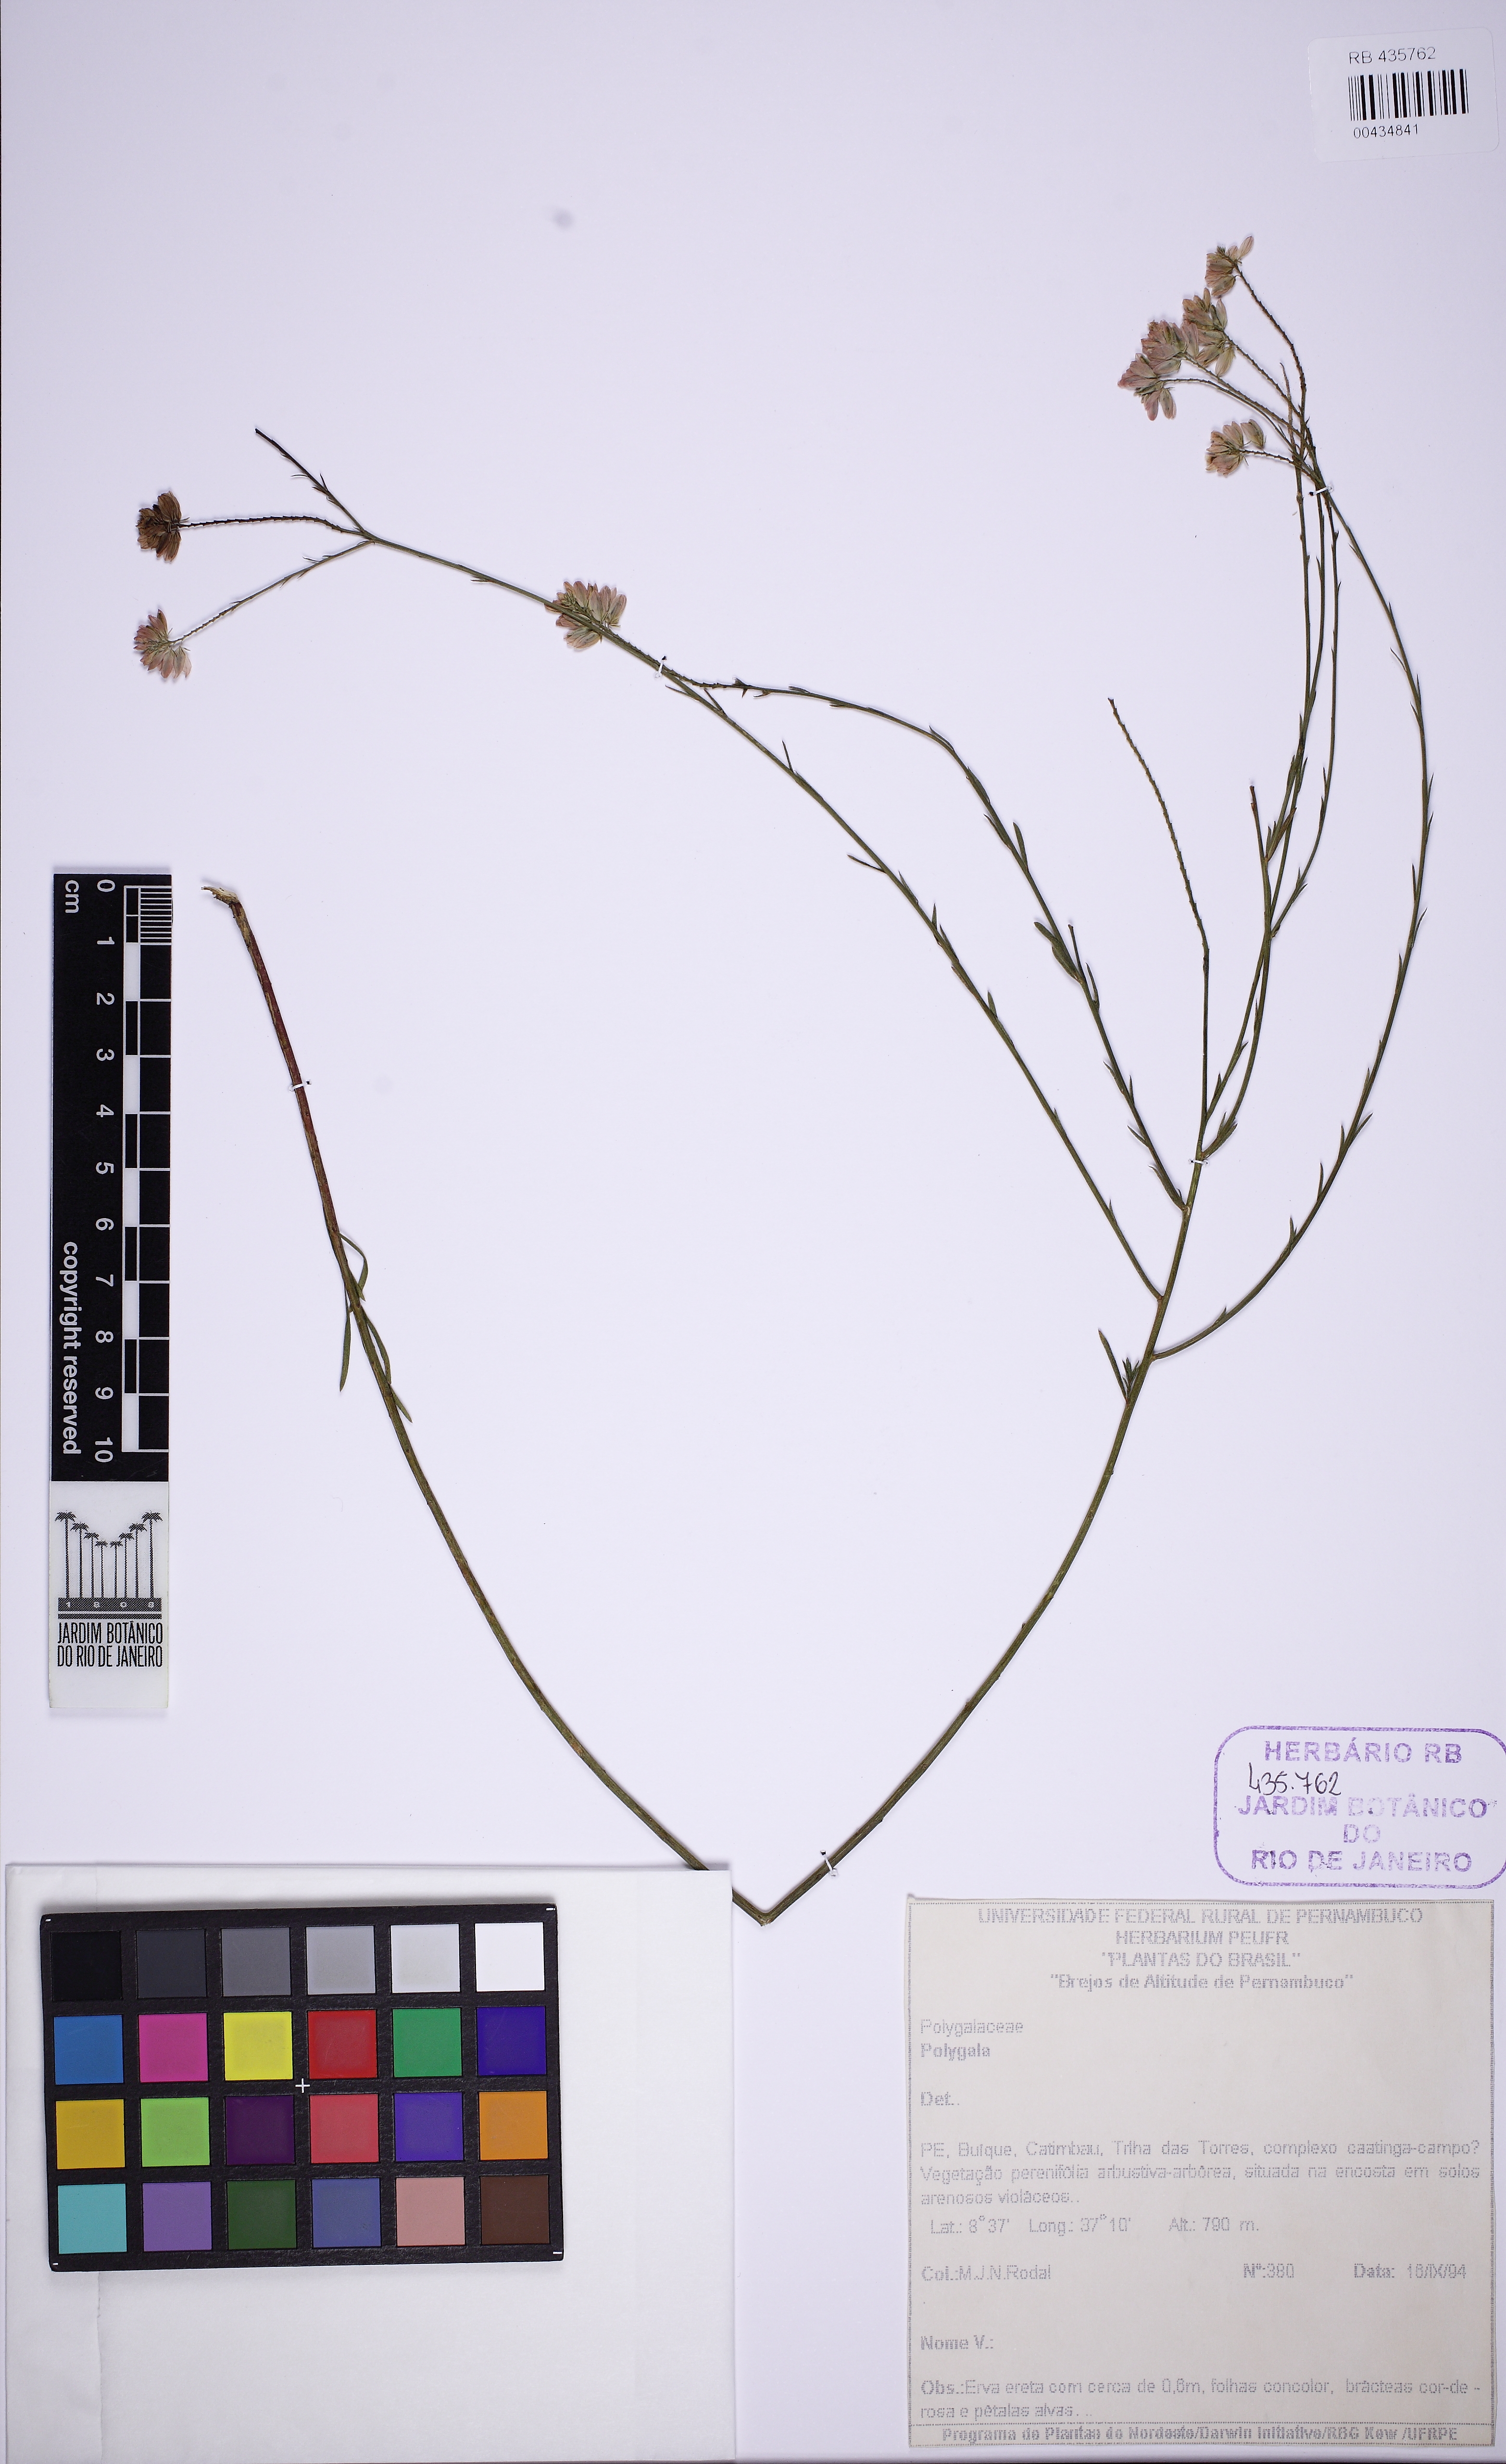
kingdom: Plantae
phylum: Tracheophyta
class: Magnoliopsida
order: Fabales
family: Polygalaceae
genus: Polygala
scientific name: Polygala trichosperma
